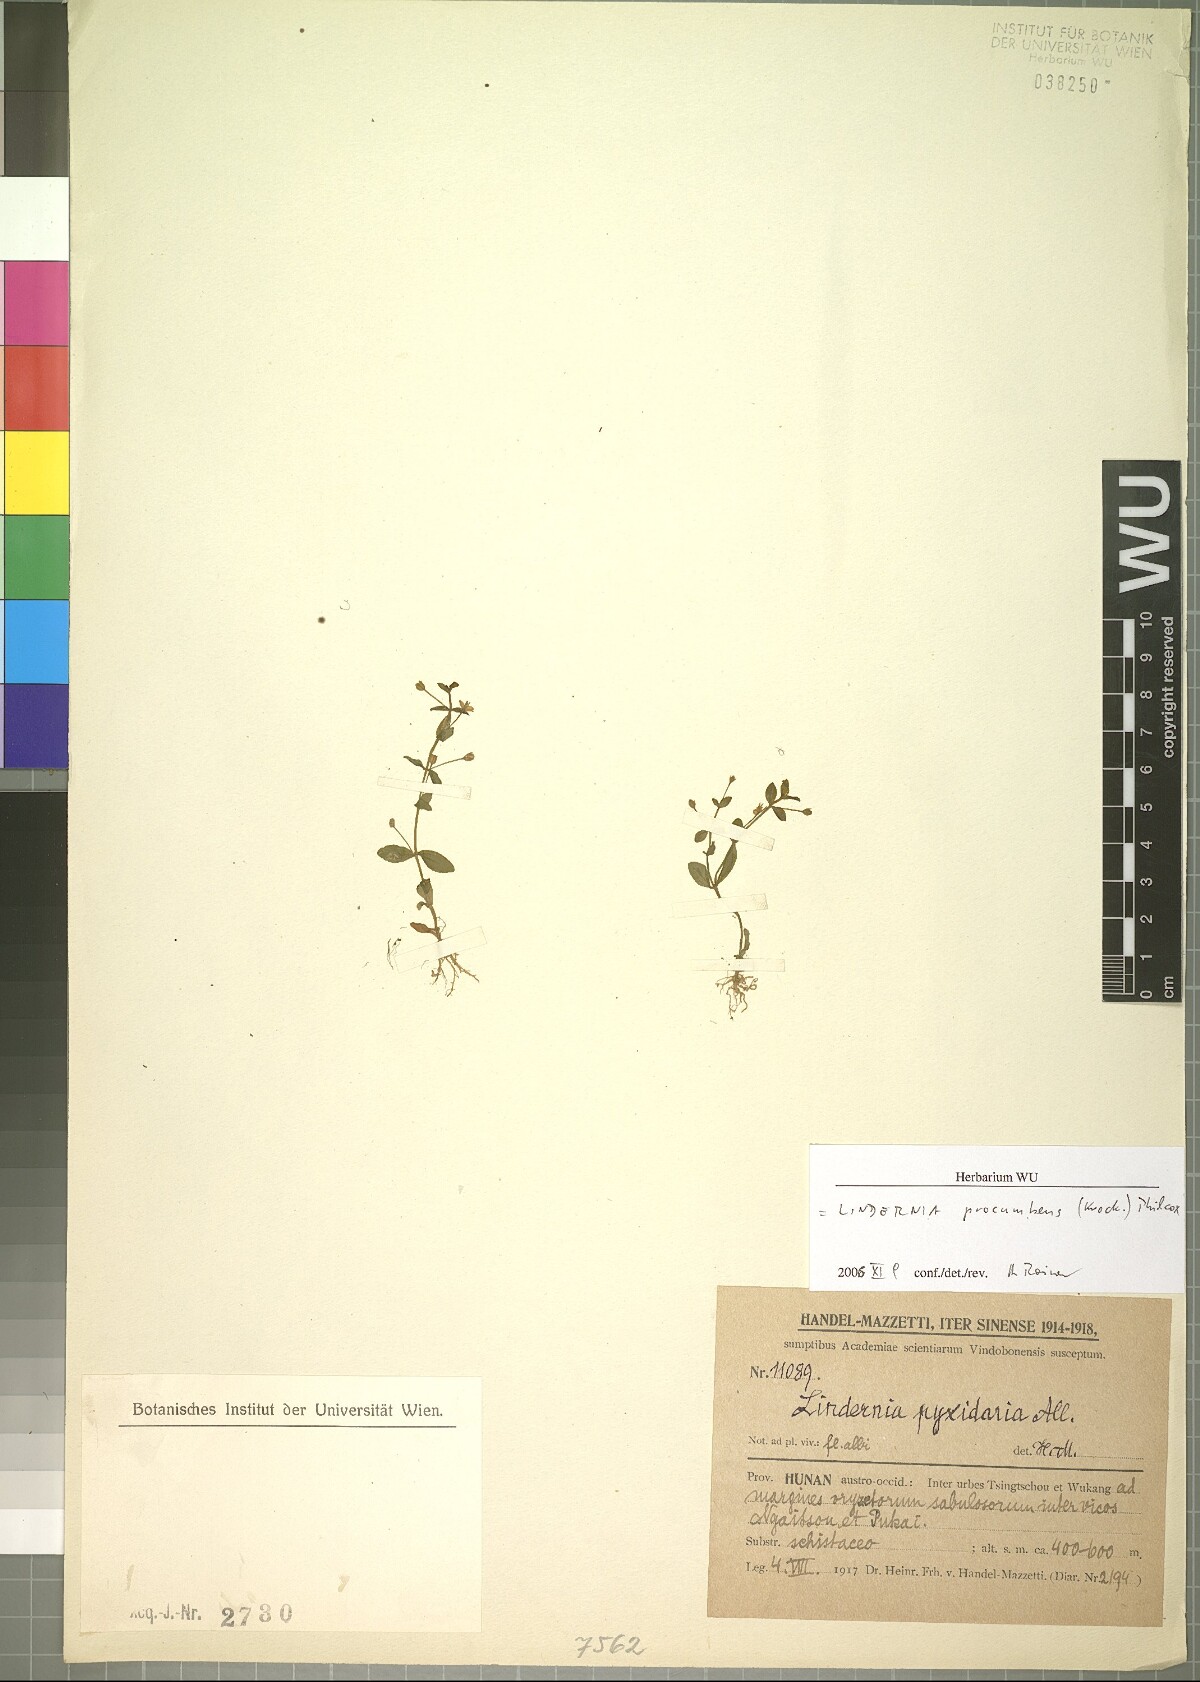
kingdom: Plantae
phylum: Tracheophyta
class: Magnoliopsida
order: Lamiales
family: Linderniaceae
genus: Lindernia
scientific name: Lindernia procumbens
